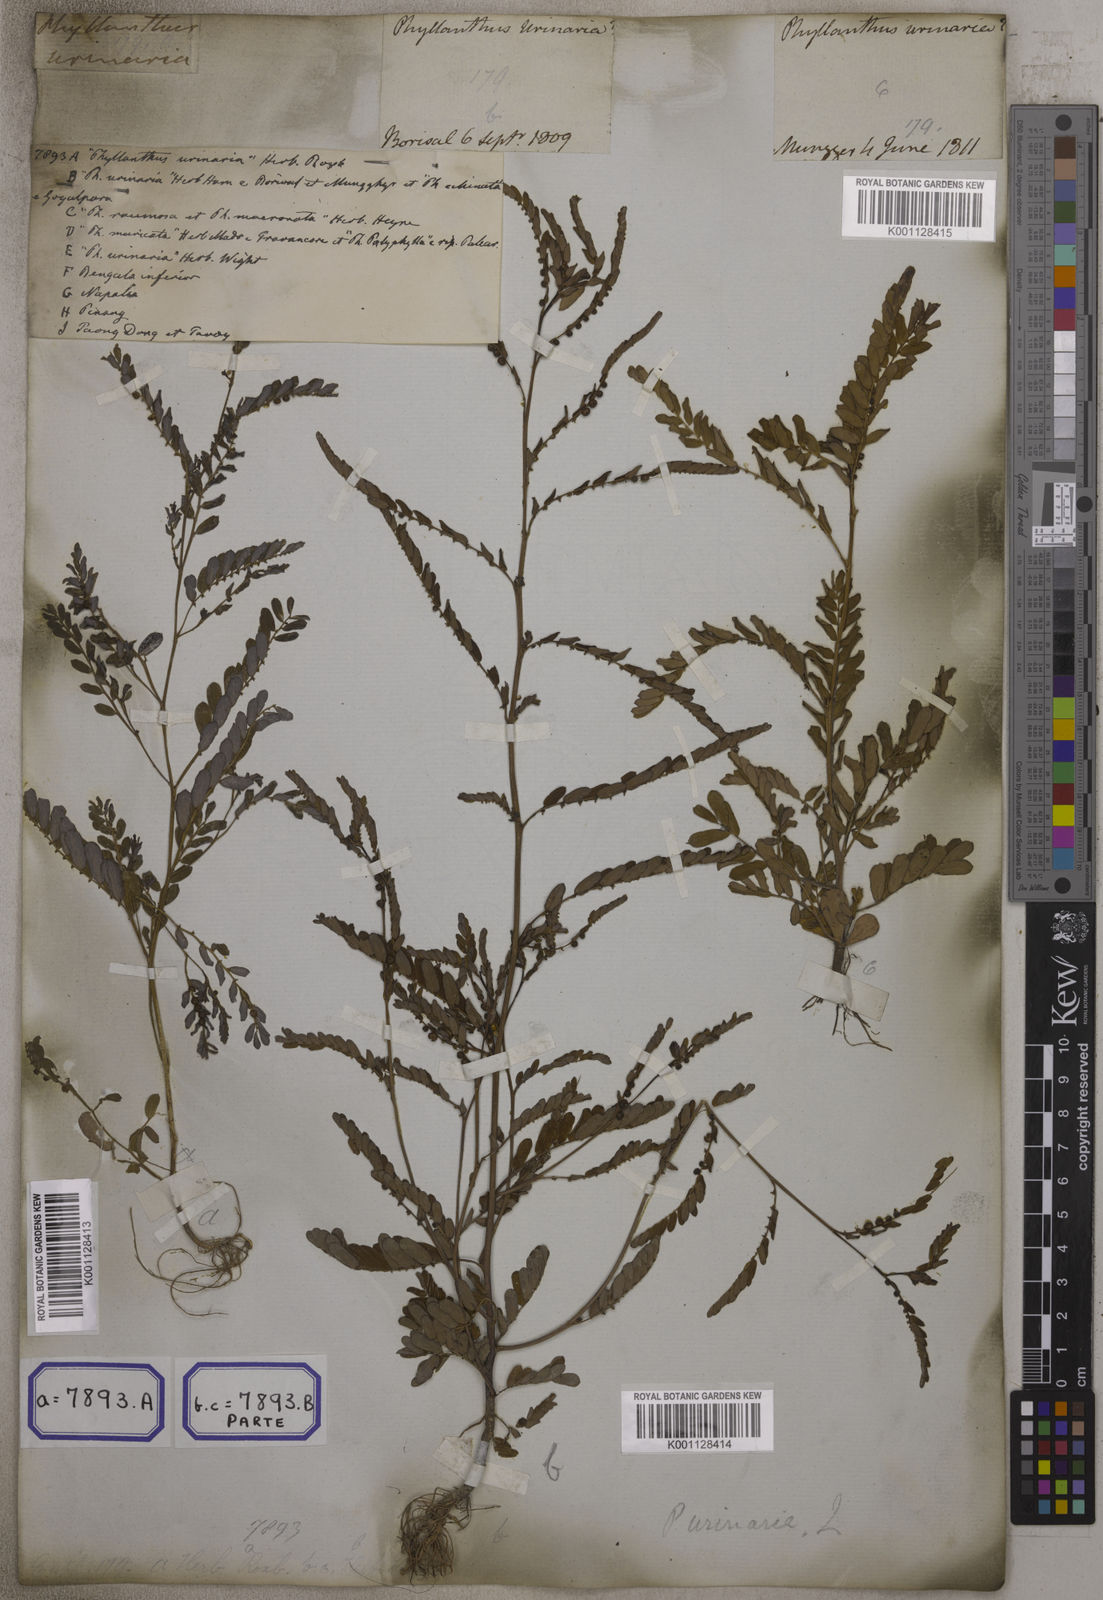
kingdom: Plantae
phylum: Tracheophyta
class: Magnoliopsida
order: Malpighiales
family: Euphorbiaceae
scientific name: Euphorbiaceae
